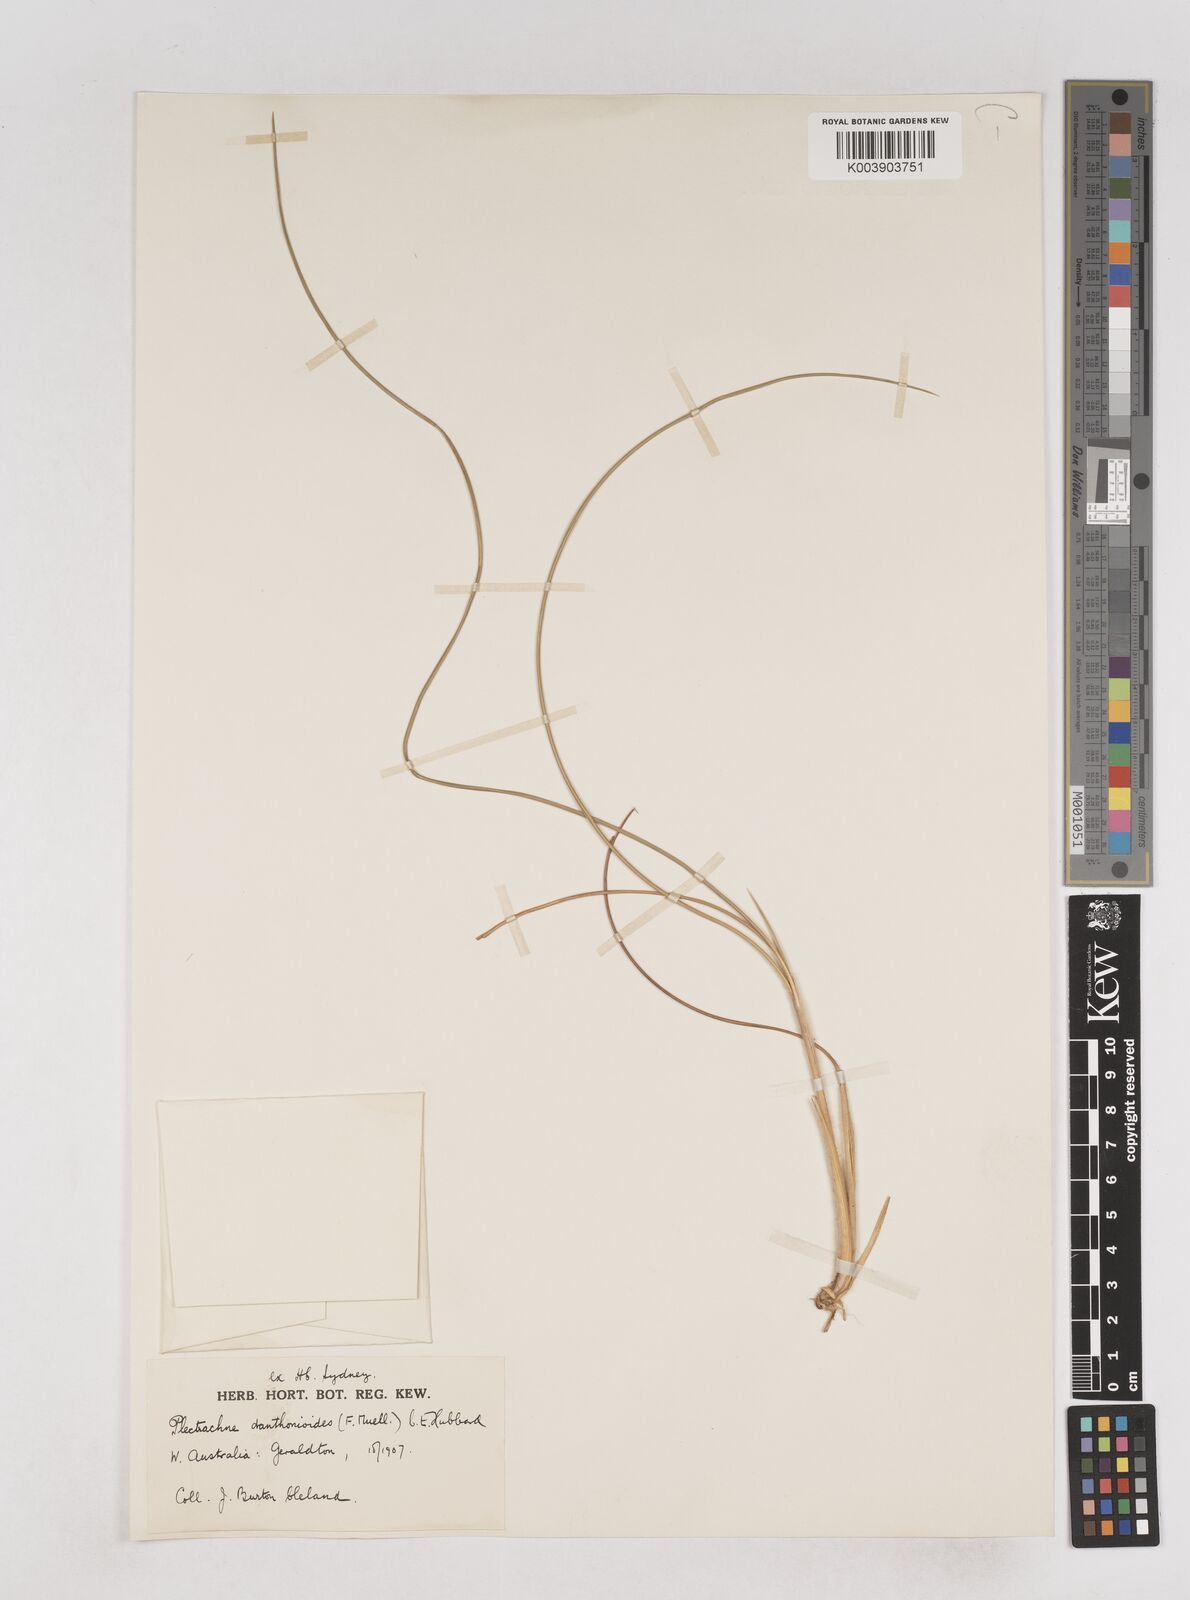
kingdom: Plantae
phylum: Tracheophyta
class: Liliopsida
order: Poales
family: Poaceae
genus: Triodia
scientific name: Triodia danthonioides
